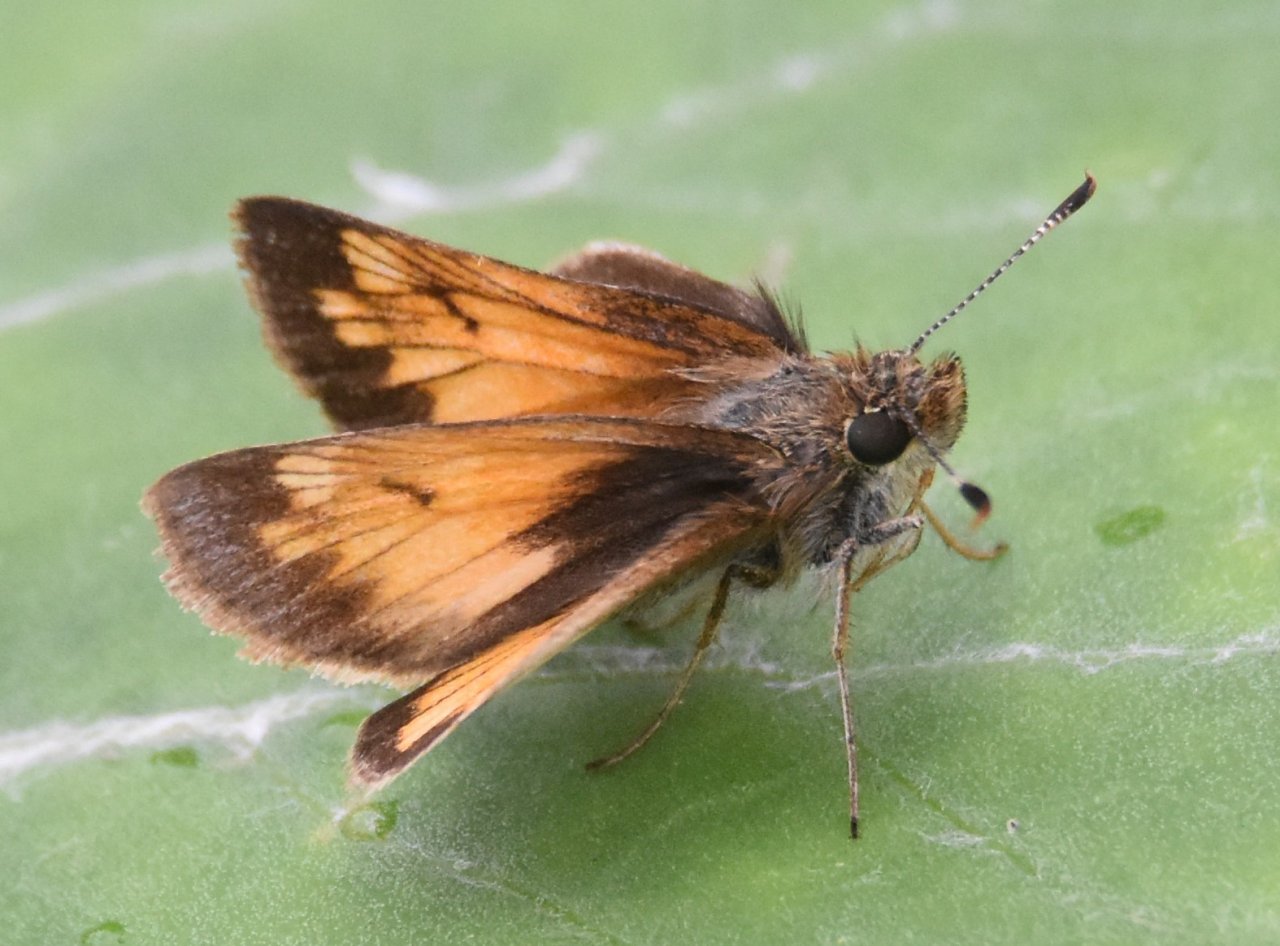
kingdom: Animalia
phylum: Arthropoda
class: Insecta
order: Lepidoptera
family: Hesperiidae
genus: Lon
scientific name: Lon hobomok
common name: Hobomok Skipper
